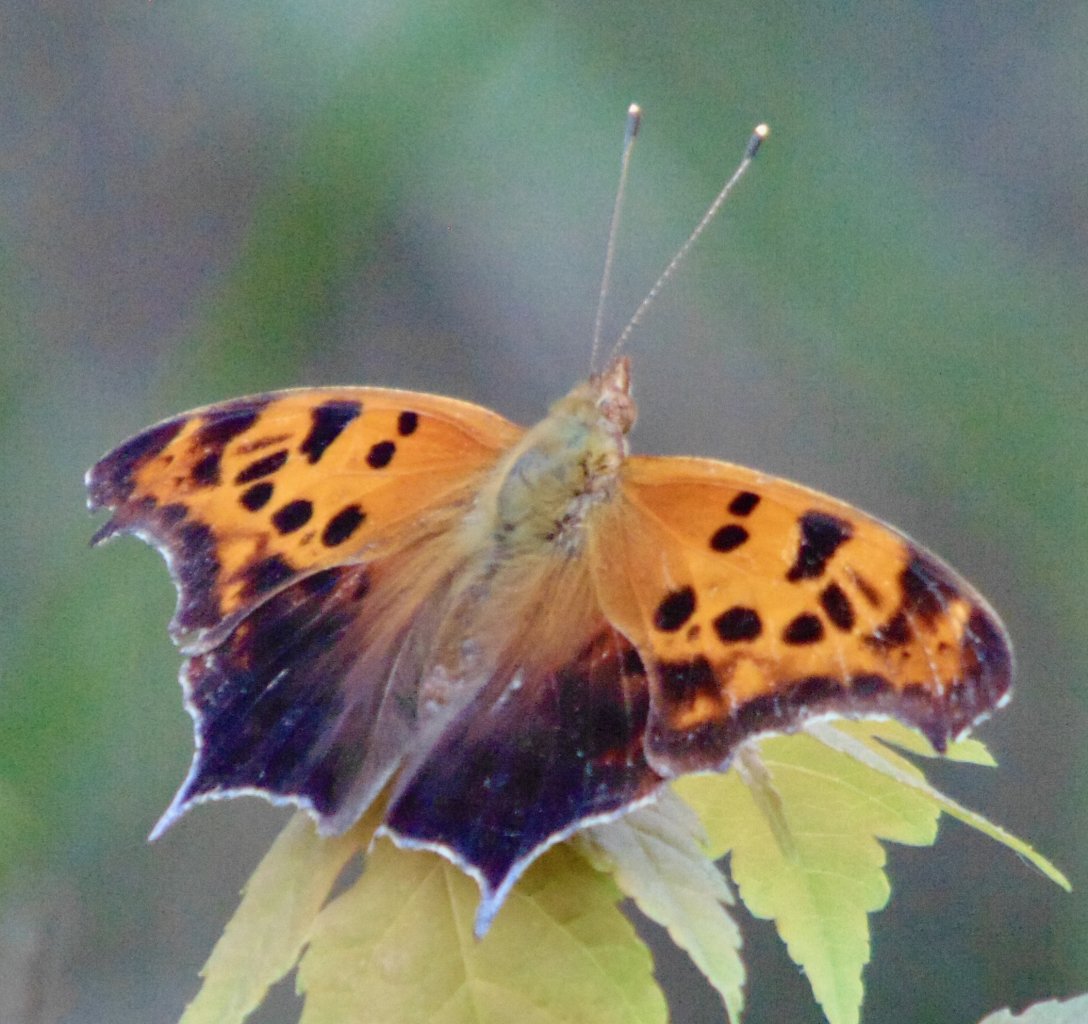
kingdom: Animalia
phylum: Arthropoda
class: Insecta
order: Lepidoptera
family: Nymphalidae
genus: Polygonia
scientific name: Polygonia interrogationis
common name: Question Mark
